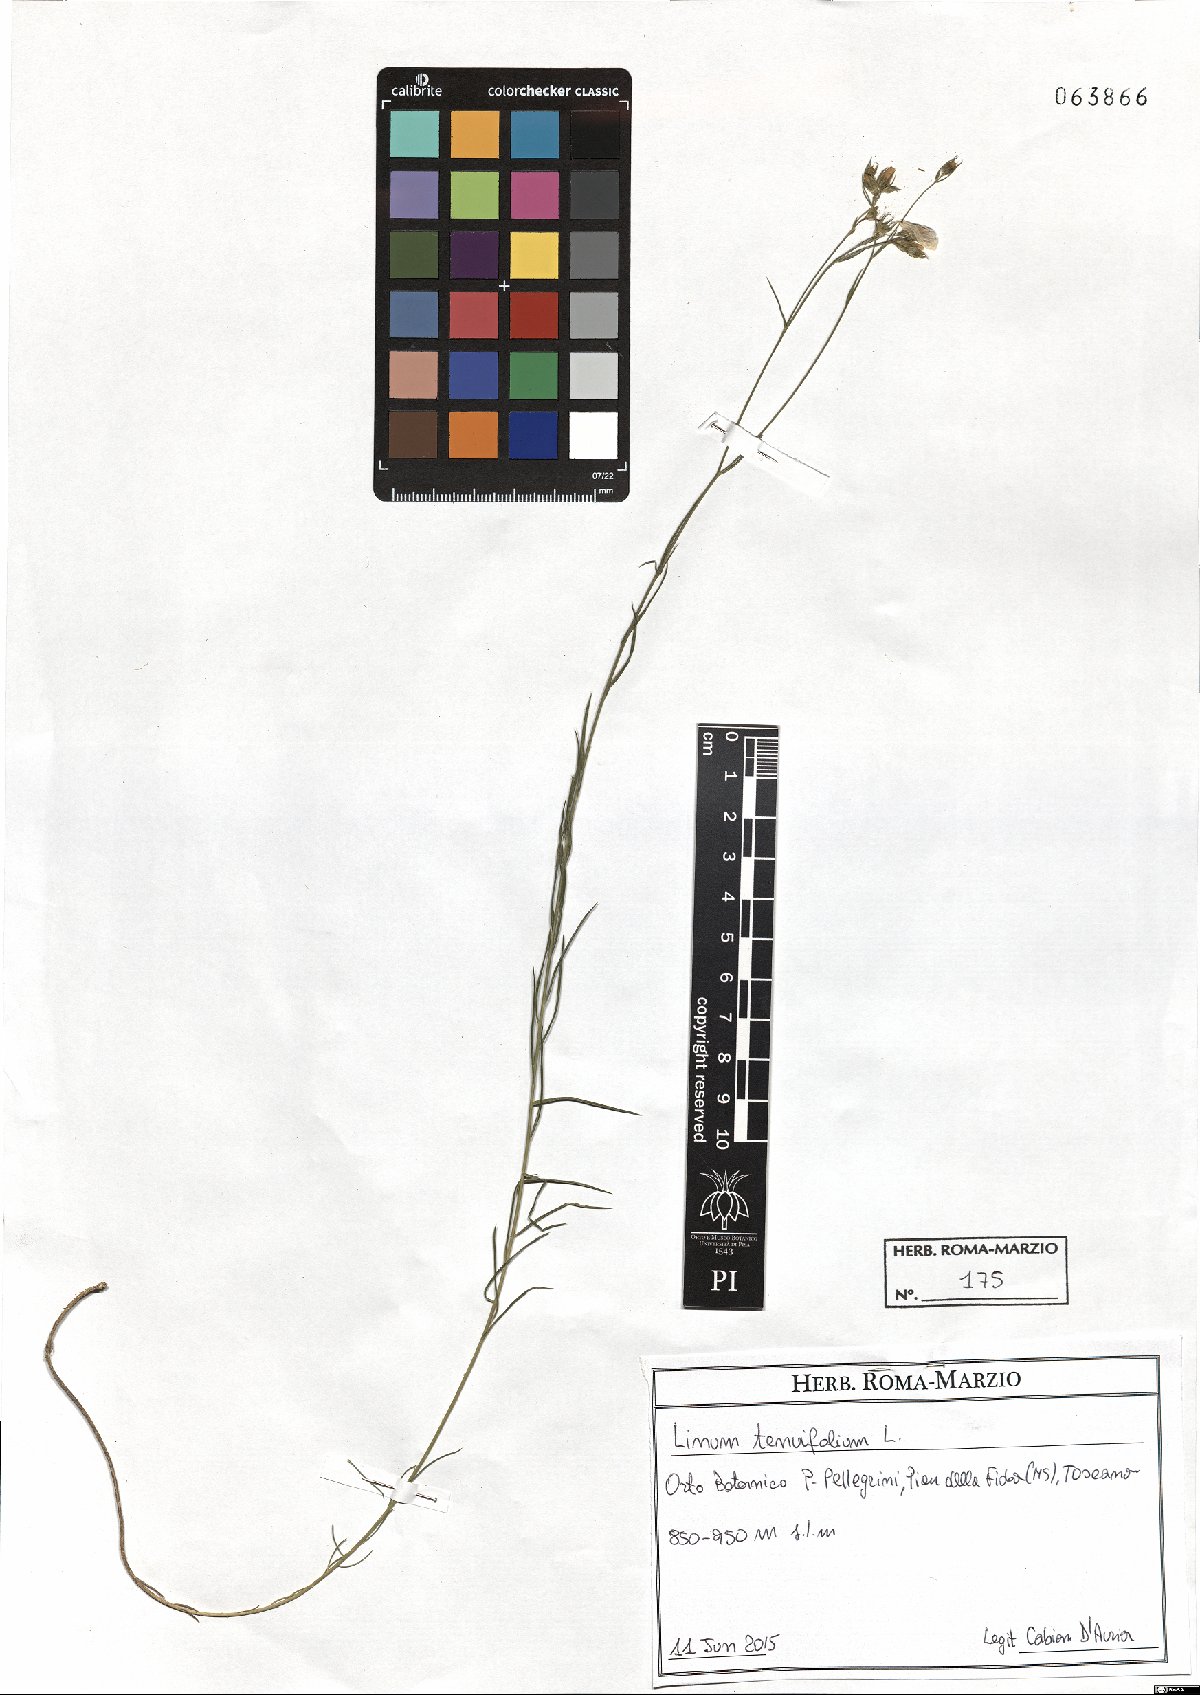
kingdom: Plantae
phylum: Tracheophyta
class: Magnoliopsida
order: Malpighiales
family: Linaceae
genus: Linum
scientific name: Linum tenuifolium
